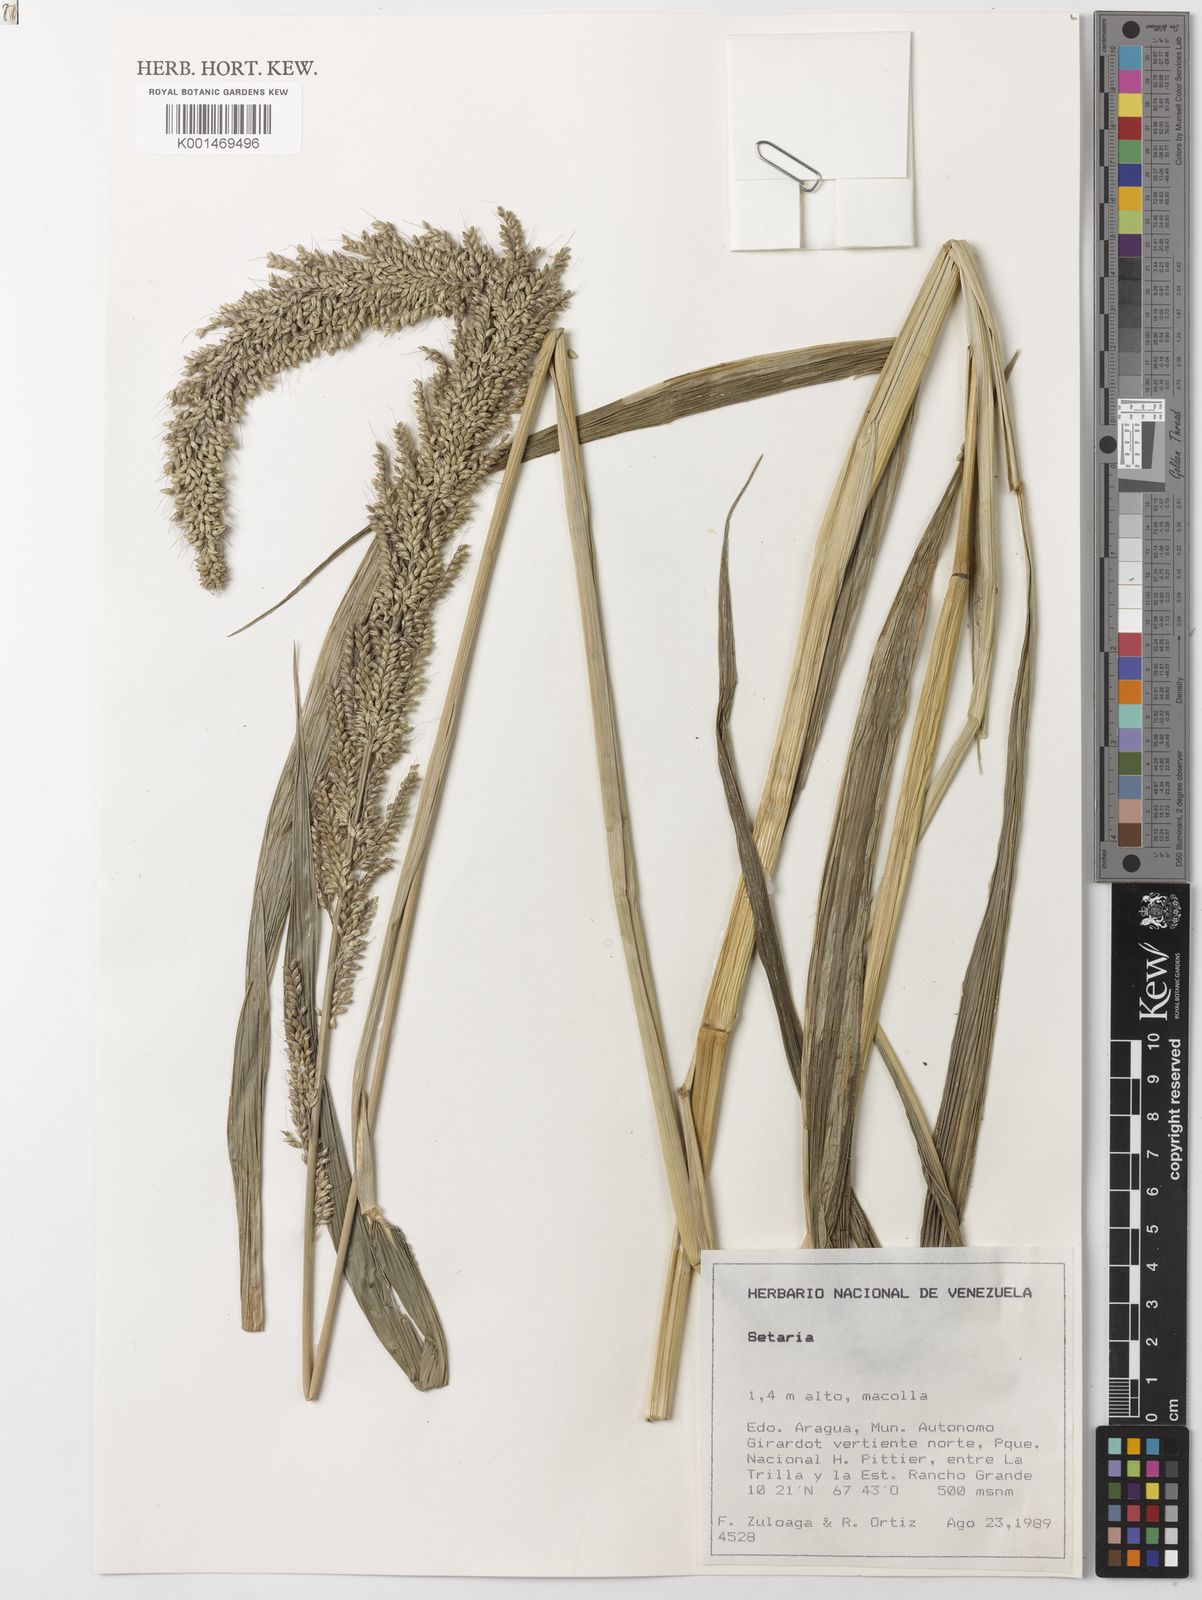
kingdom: Plantae
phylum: Tracheophyta
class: Liliopsida
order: Poales
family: Poaceae
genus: Setaria
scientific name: Setaria sulcata
